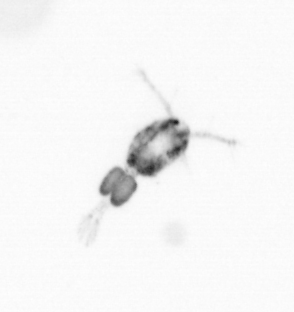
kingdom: Animalia
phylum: Arthropoda
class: Copepoda
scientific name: Copepoda
